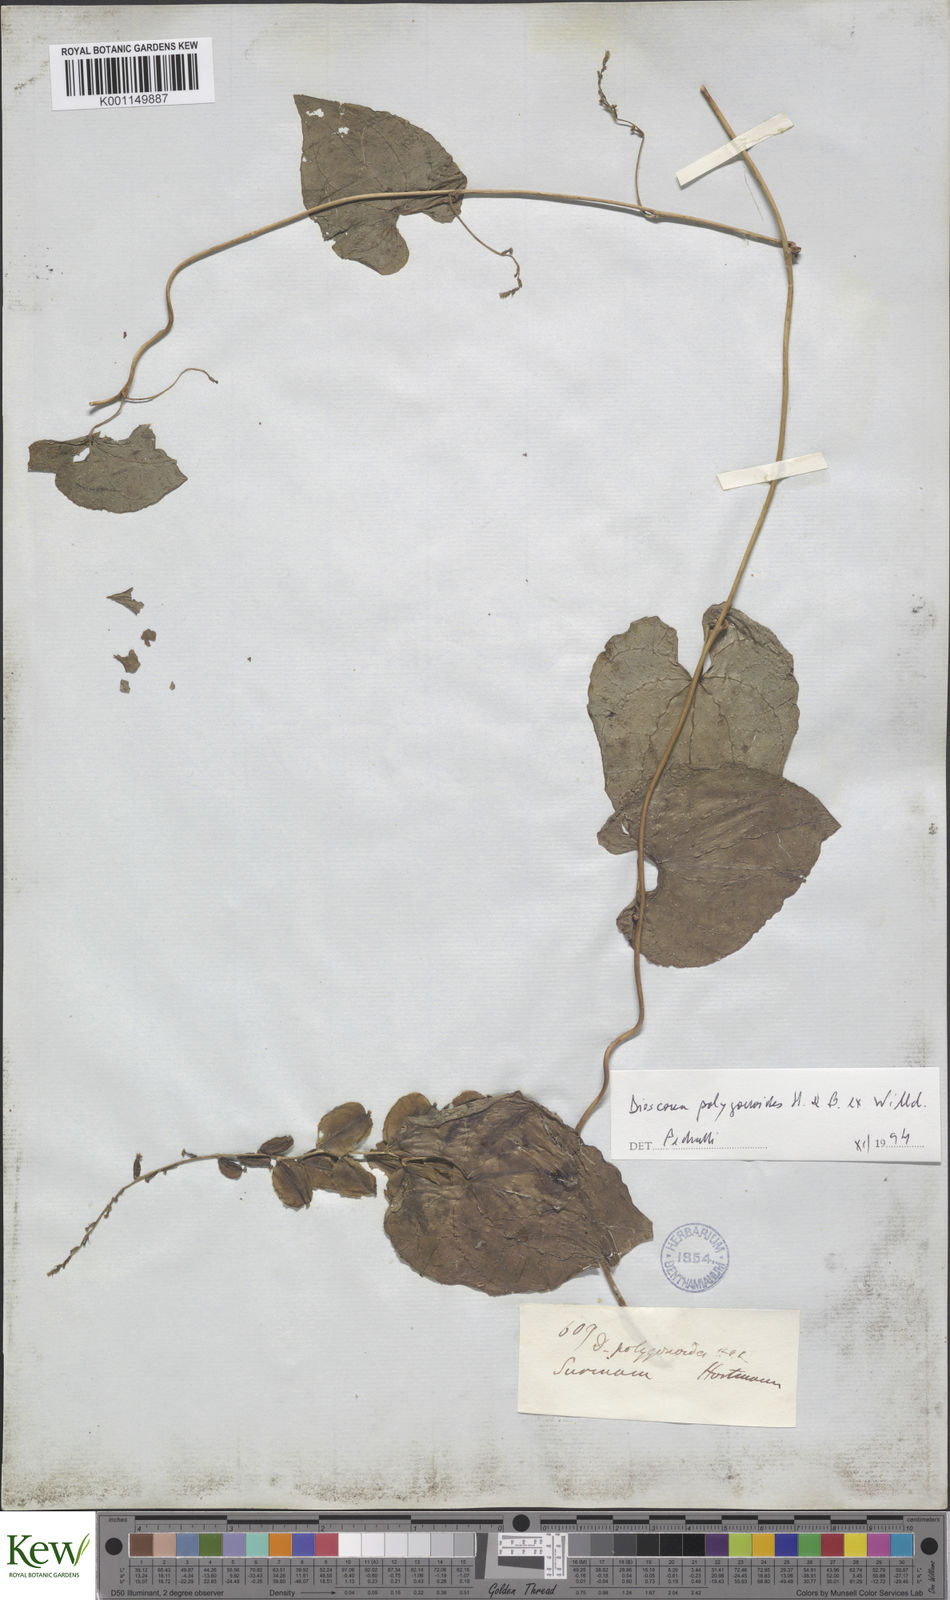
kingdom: Plantae
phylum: Tracheophyta
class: Liliopsida
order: Dioscoreales
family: Dioscoreaceae
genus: Dioscorea
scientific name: Dioscorea polygonoides
